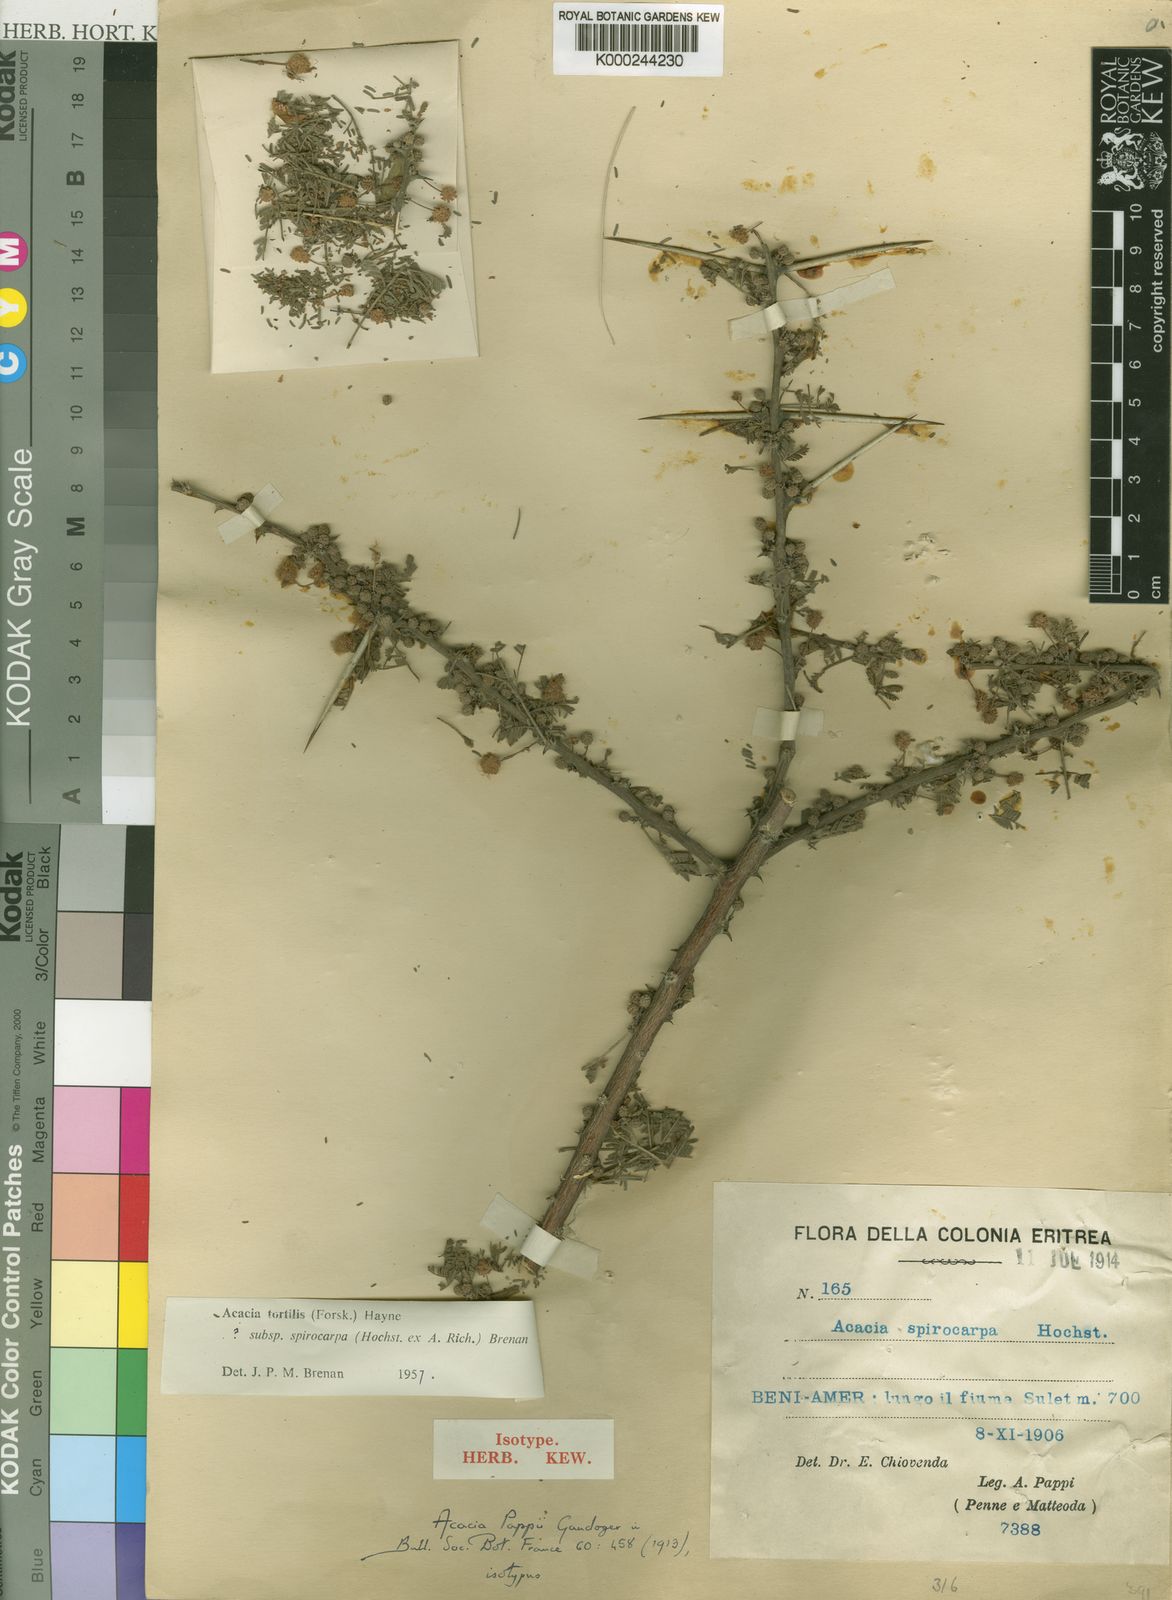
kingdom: Plantae
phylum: Tracheophyta
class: Magnoliopsida
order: Fabales
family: Fabaceae
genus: Vachellia
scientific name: Vachellia tortilis
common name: Umbrella thorn acacia
